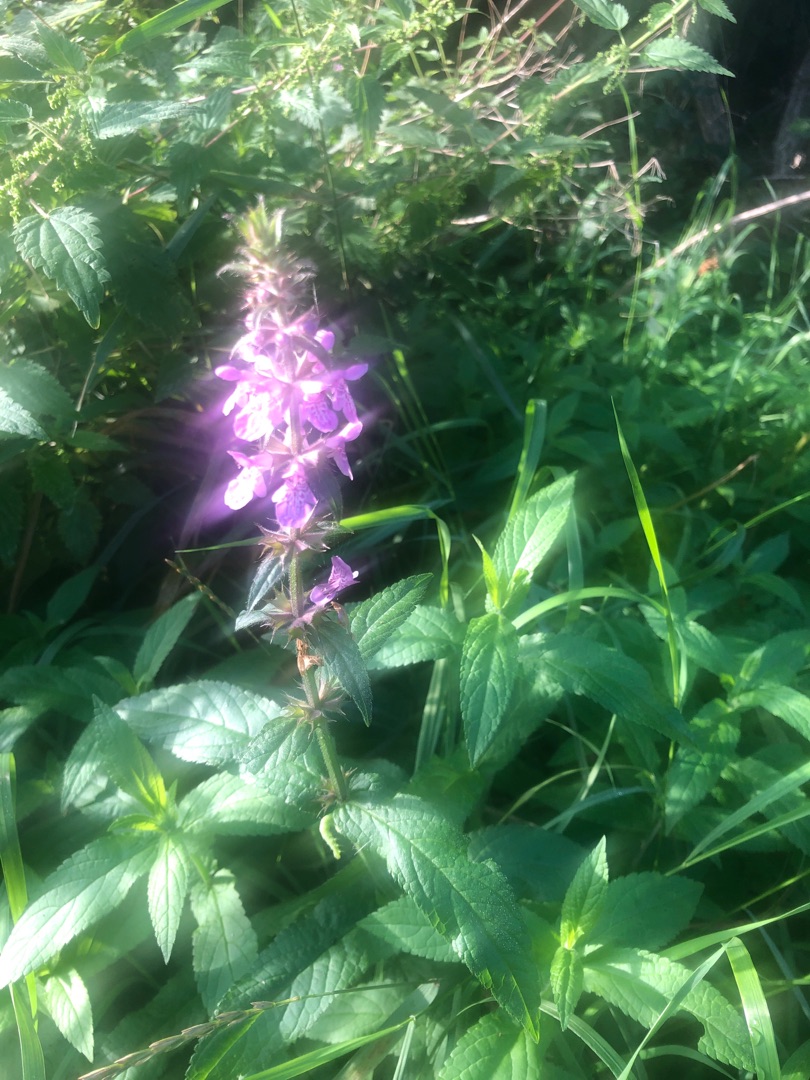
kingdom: Plantae
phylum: Tracheophyta
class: Magnoliopsida
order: Lamiales
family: Lamiaceae
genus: Stachys
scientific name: Stachys palustris
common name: Kær-galtetand
